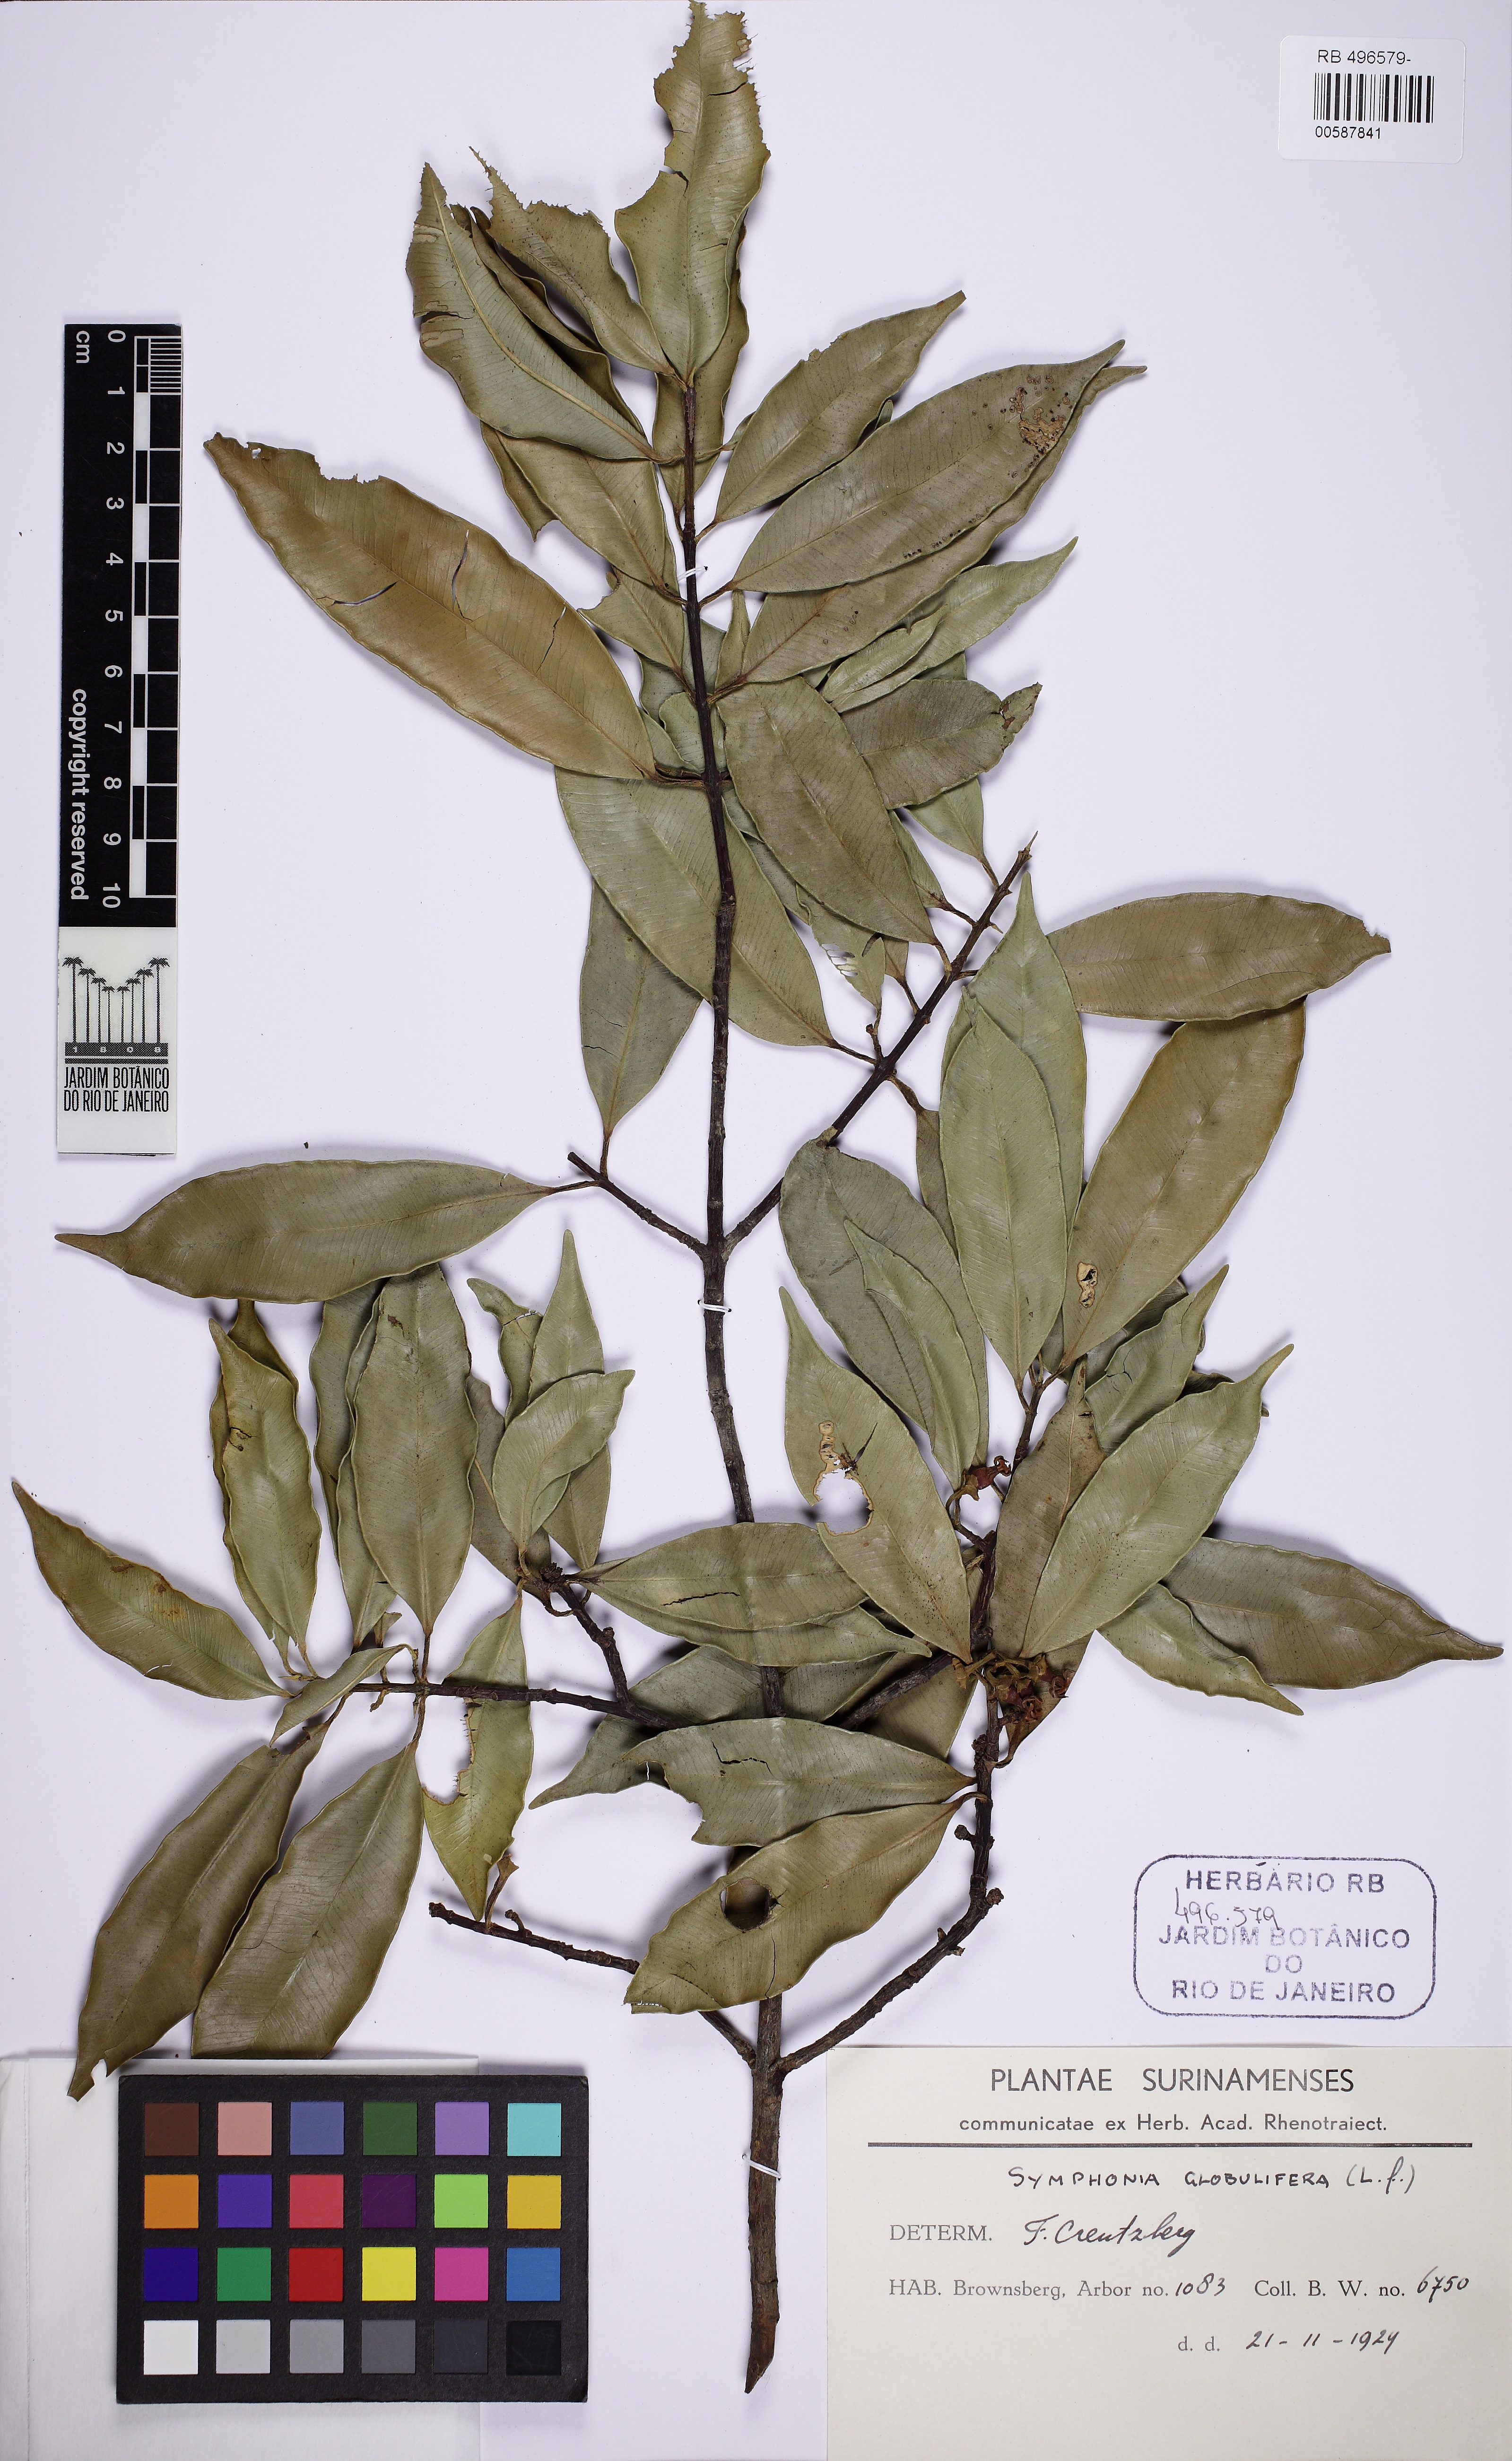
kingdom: Plantae
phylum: Tracheophyta
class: Magnoliopsida
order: Malpighiales
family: Clusiaceae
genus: Symphonia
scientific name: Symphonia globulifera
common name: Boarwood
